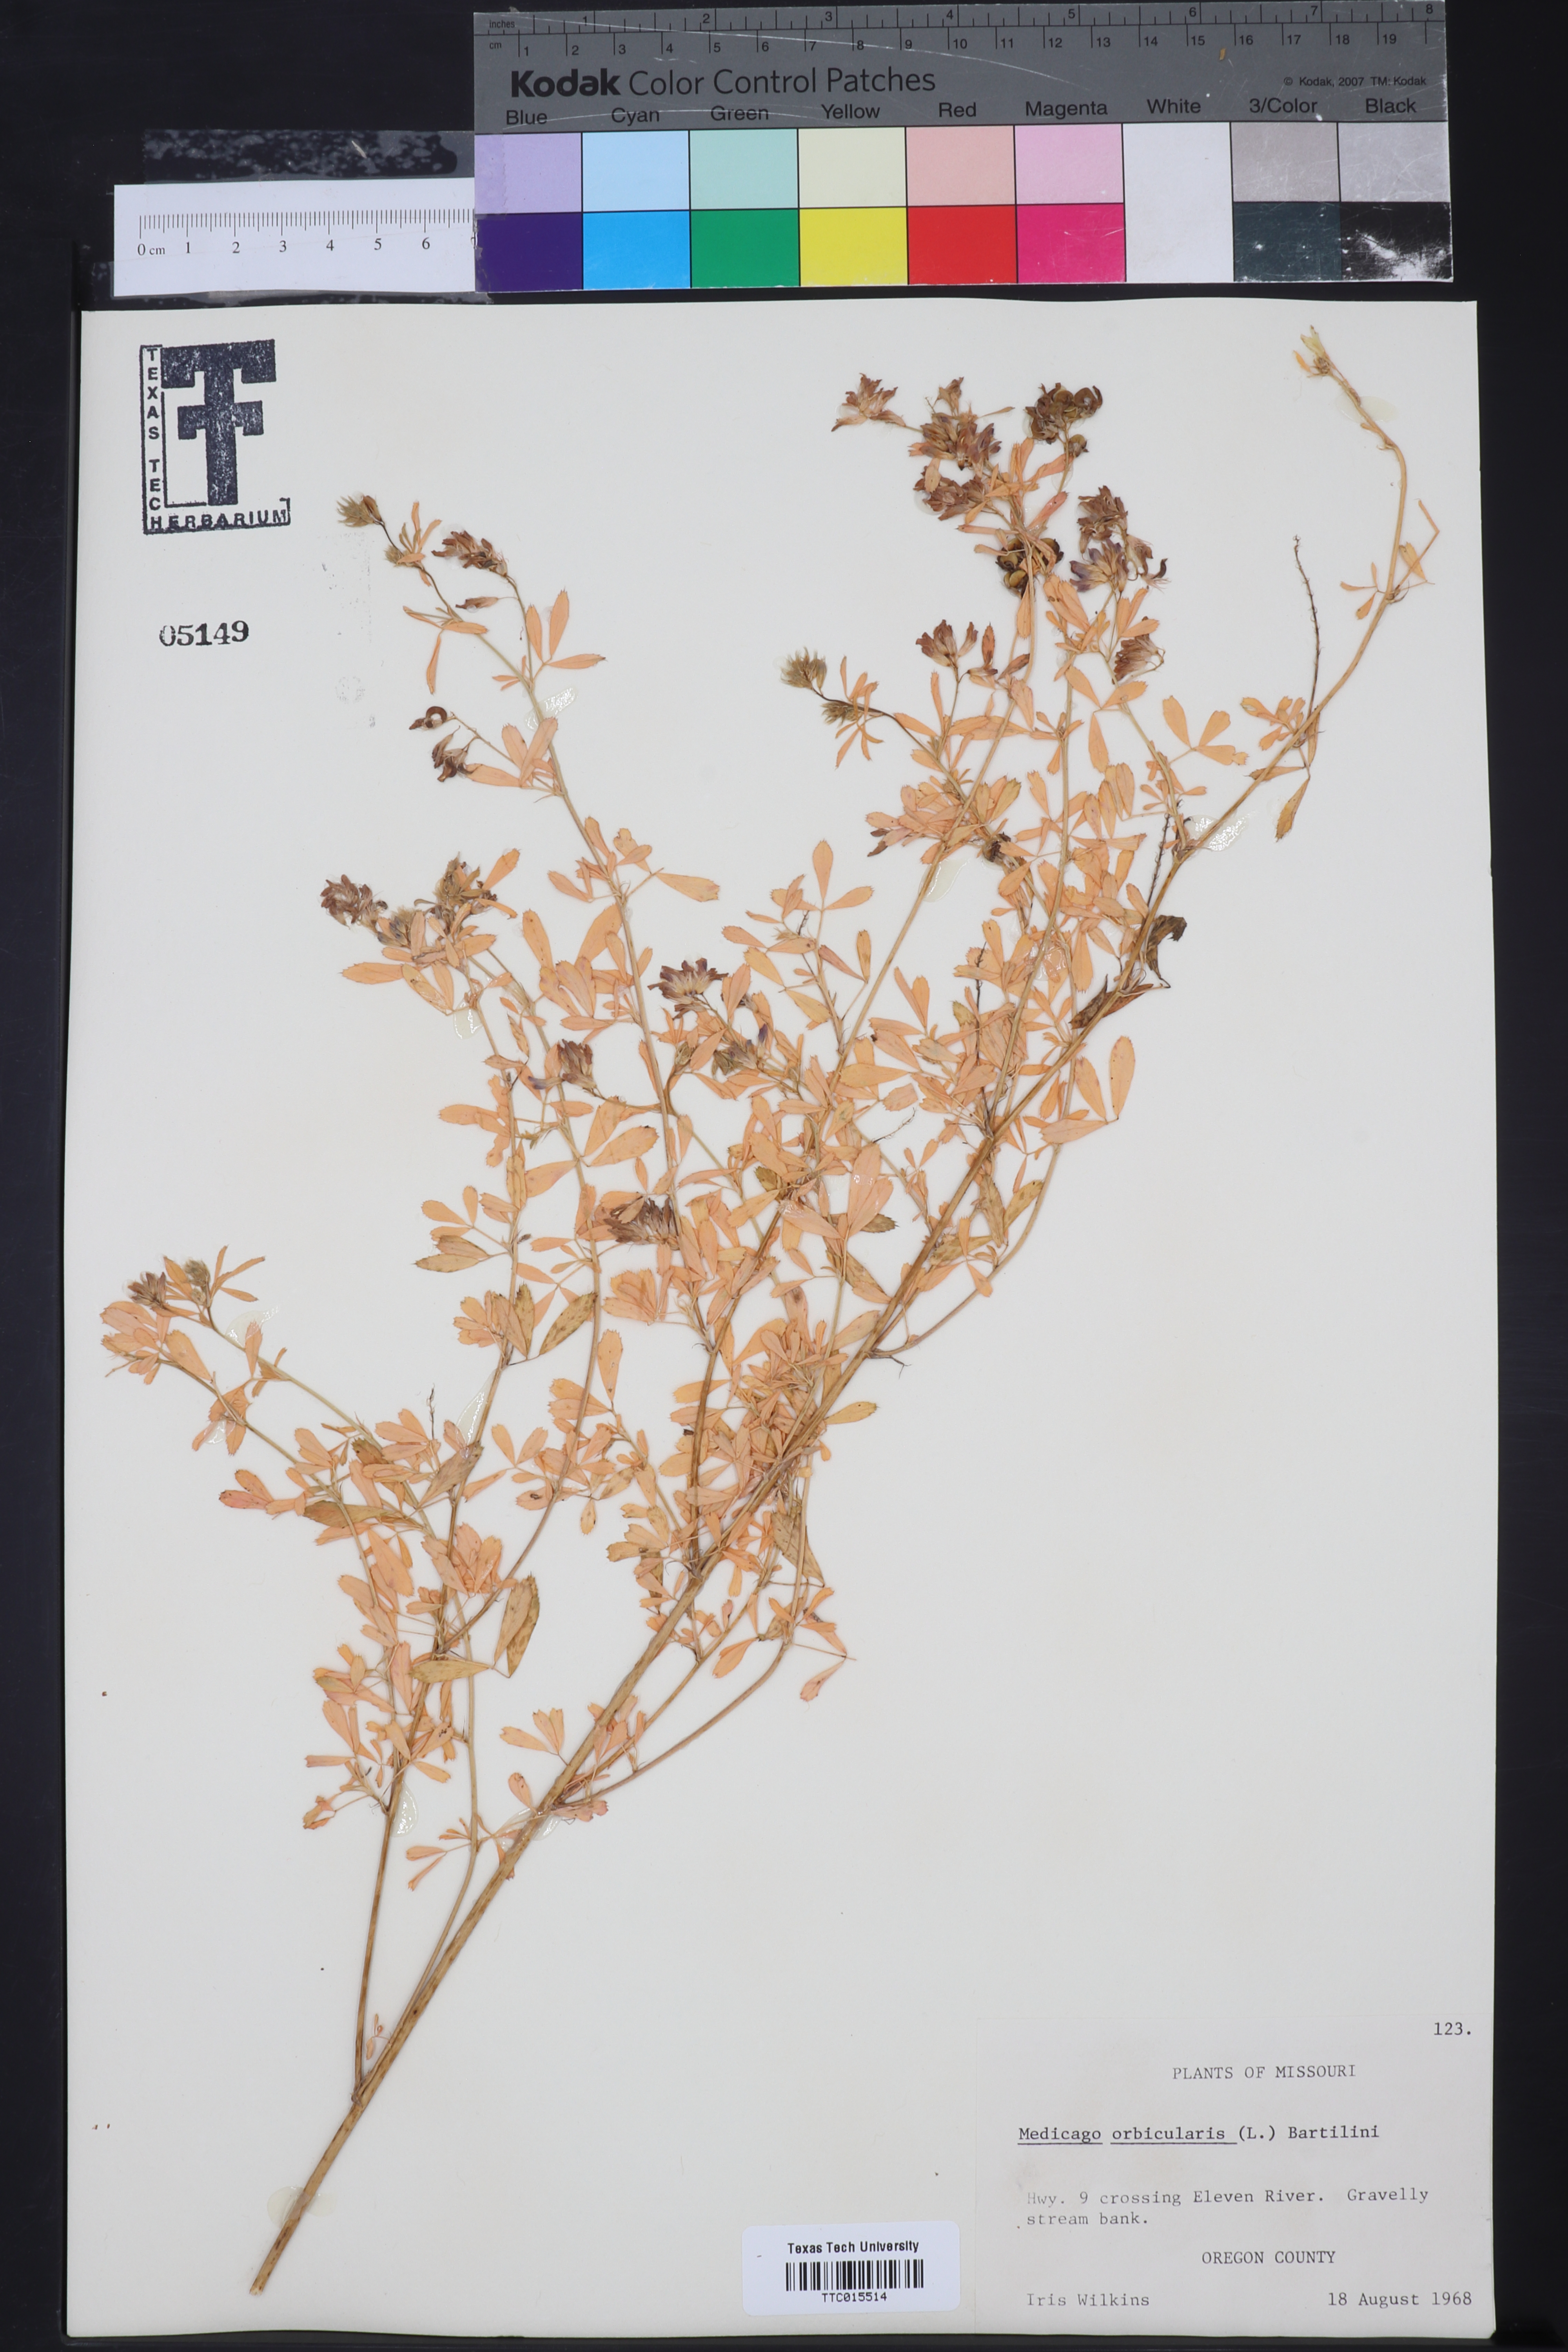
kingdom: Plantae
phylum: Tracheophyta
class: Magnoliopsida
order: Fabales
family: Fabaceae
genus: Medicago
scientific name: Medicago orbicularis
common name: Button medick
